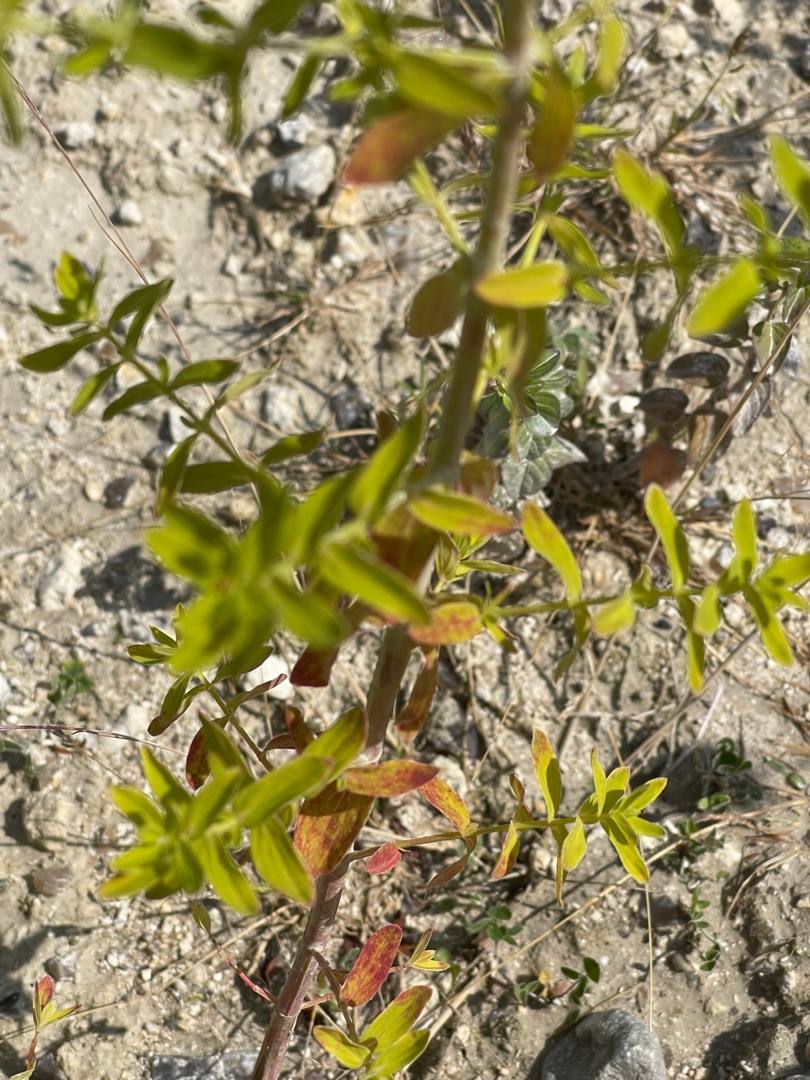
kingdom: Plantae
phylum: Tracheophyta
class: Magnoliopsida
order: Malpighiales
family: Hypericaceae
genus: Hypericum
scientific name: Hypericum perforatum
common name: Prikbladet perikon
